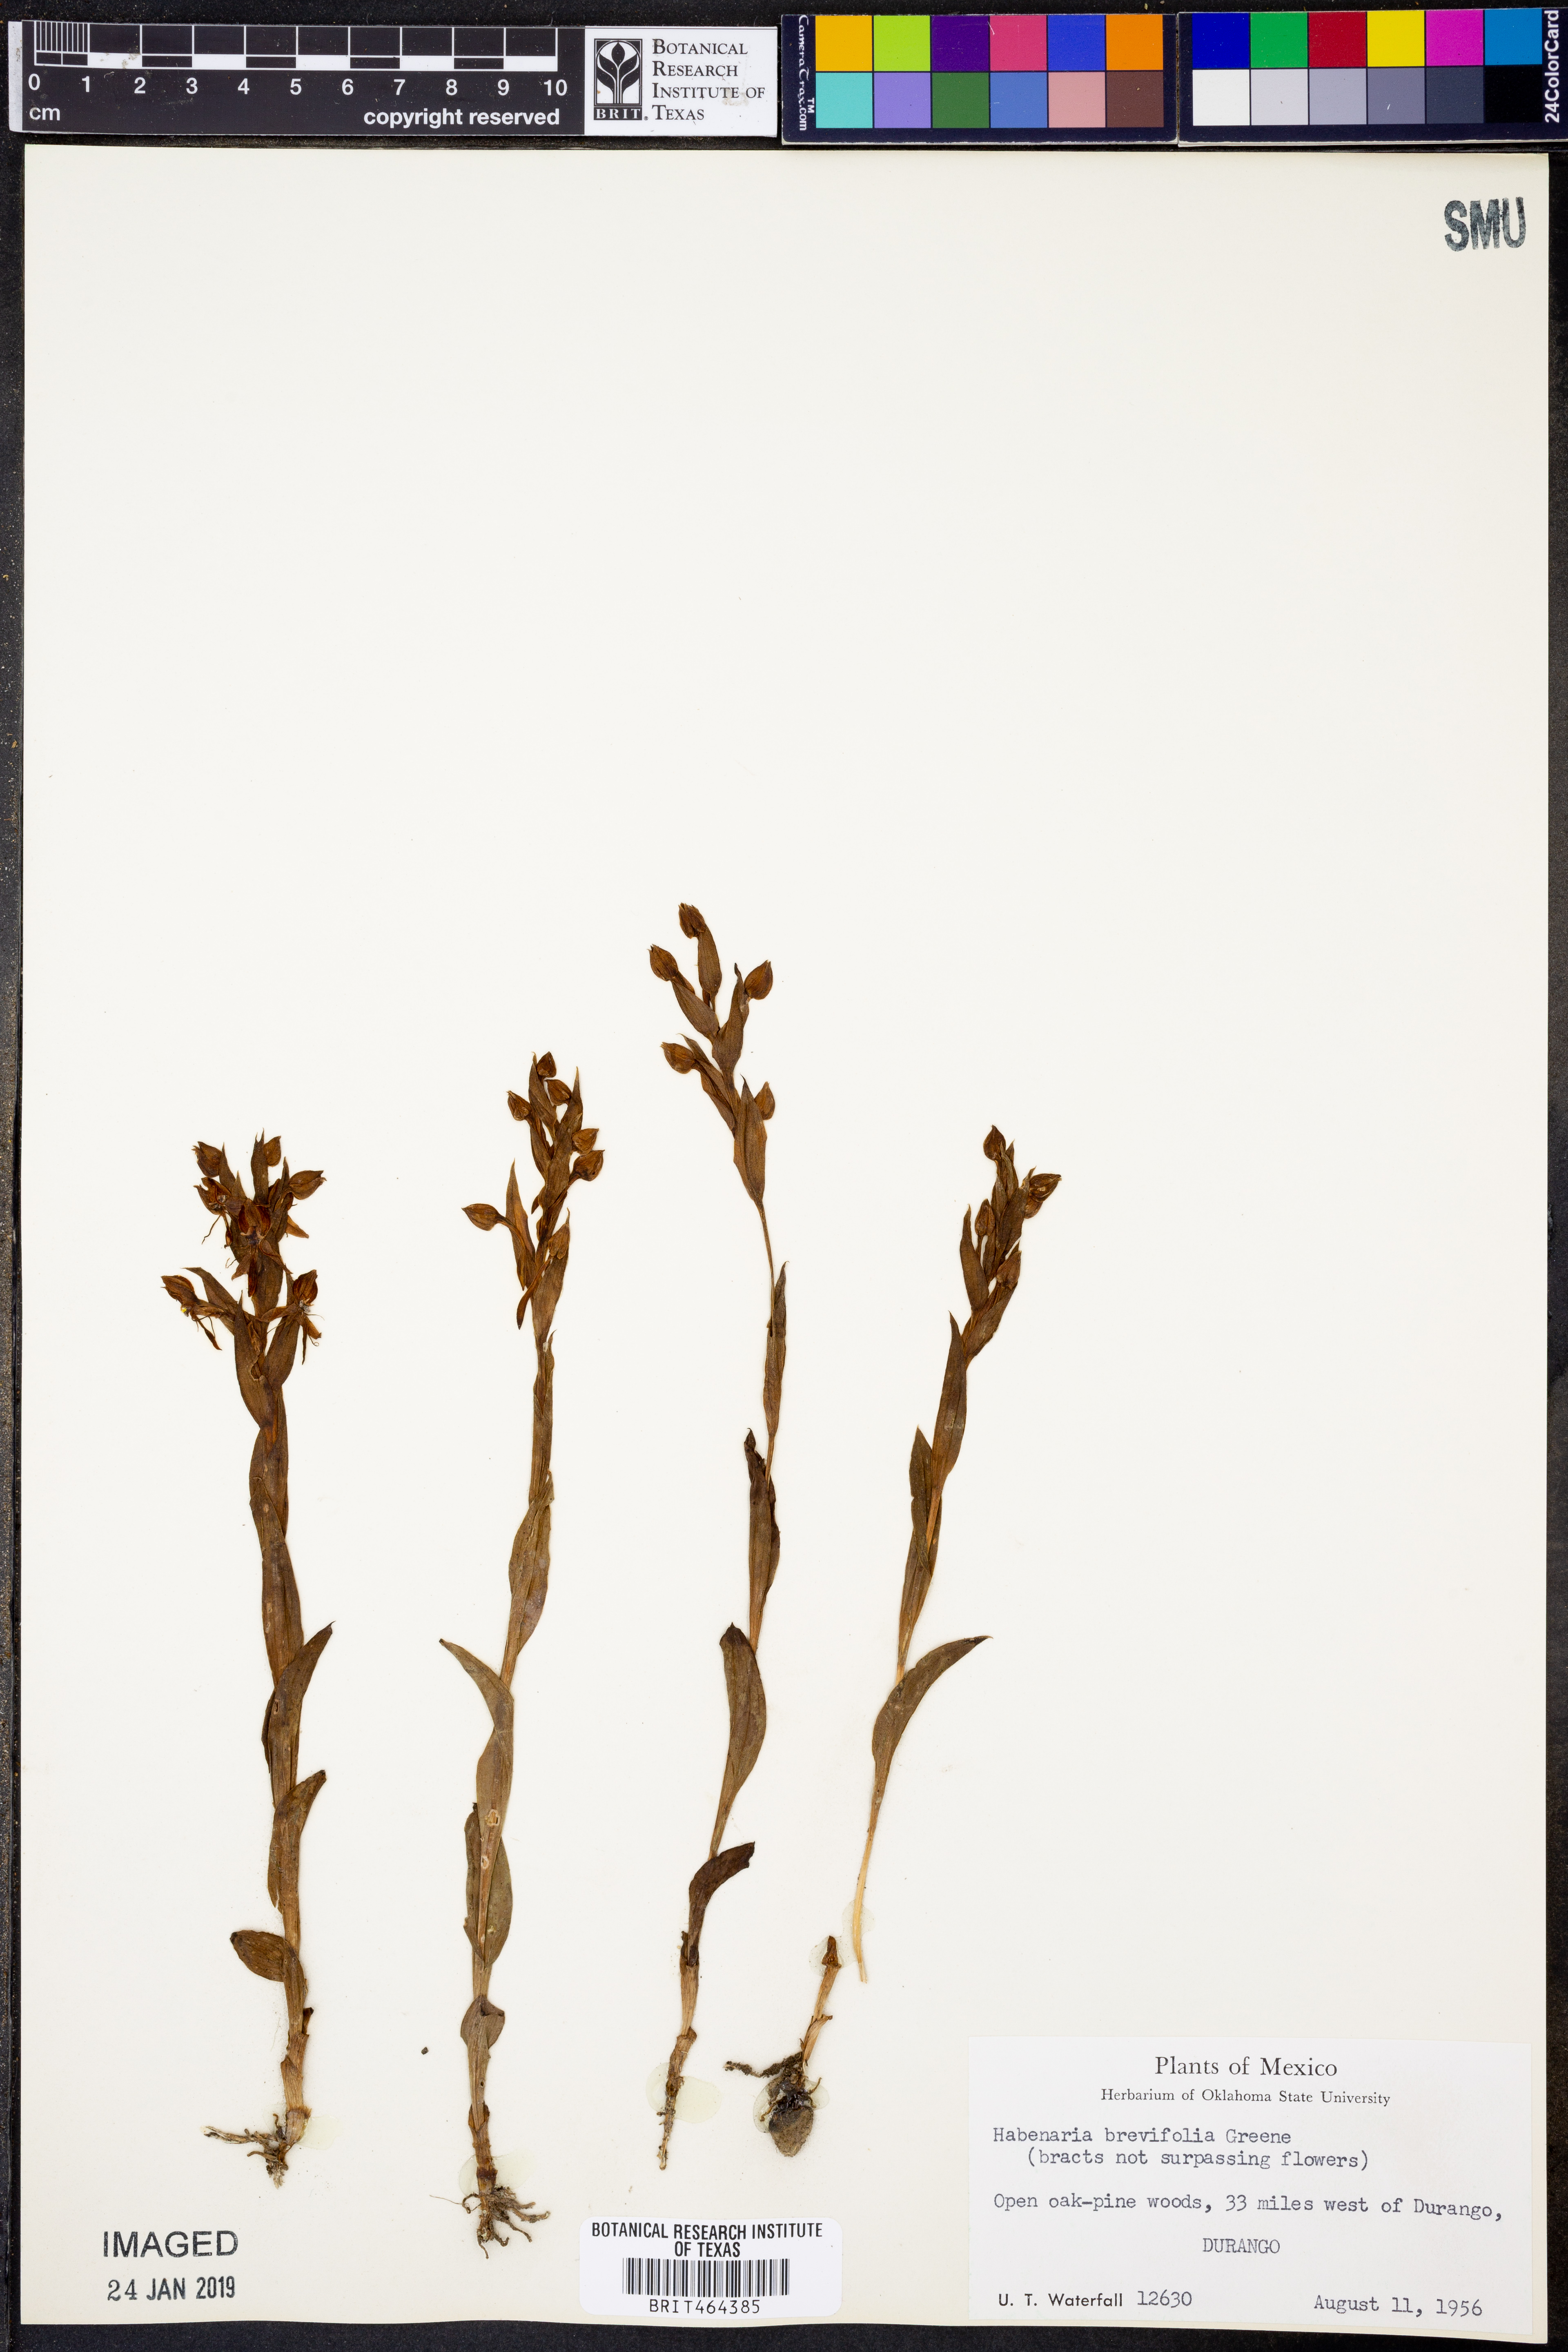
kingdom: Plantae
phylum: Tracheophyta
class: Liliopsida
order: Asparagales
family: Orchidaceae
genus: Platanthera
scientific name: Platanthera brevifolia
